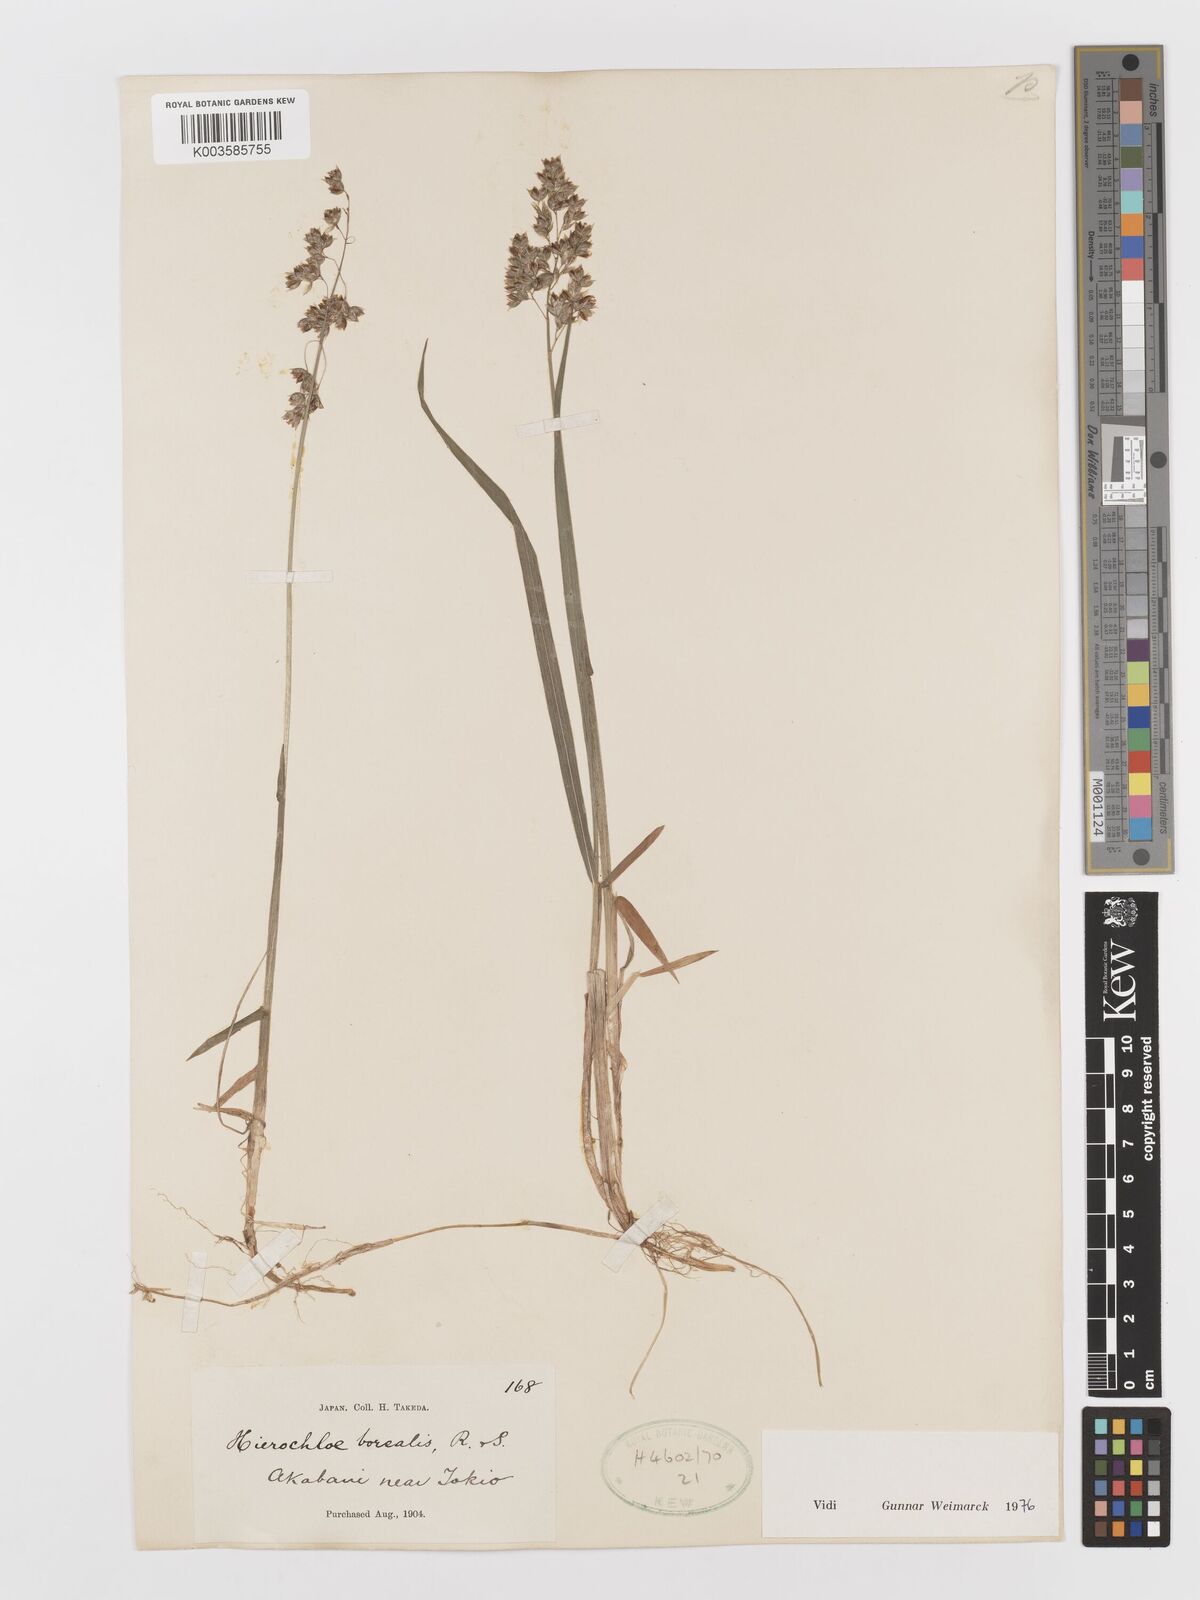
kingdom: Plantae
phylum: Tracheophyta
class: Liliopsida
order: Poales
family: Poaceae
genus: Anthoxanthum
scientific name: Anthoxanthum nitens
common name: Holy grass
